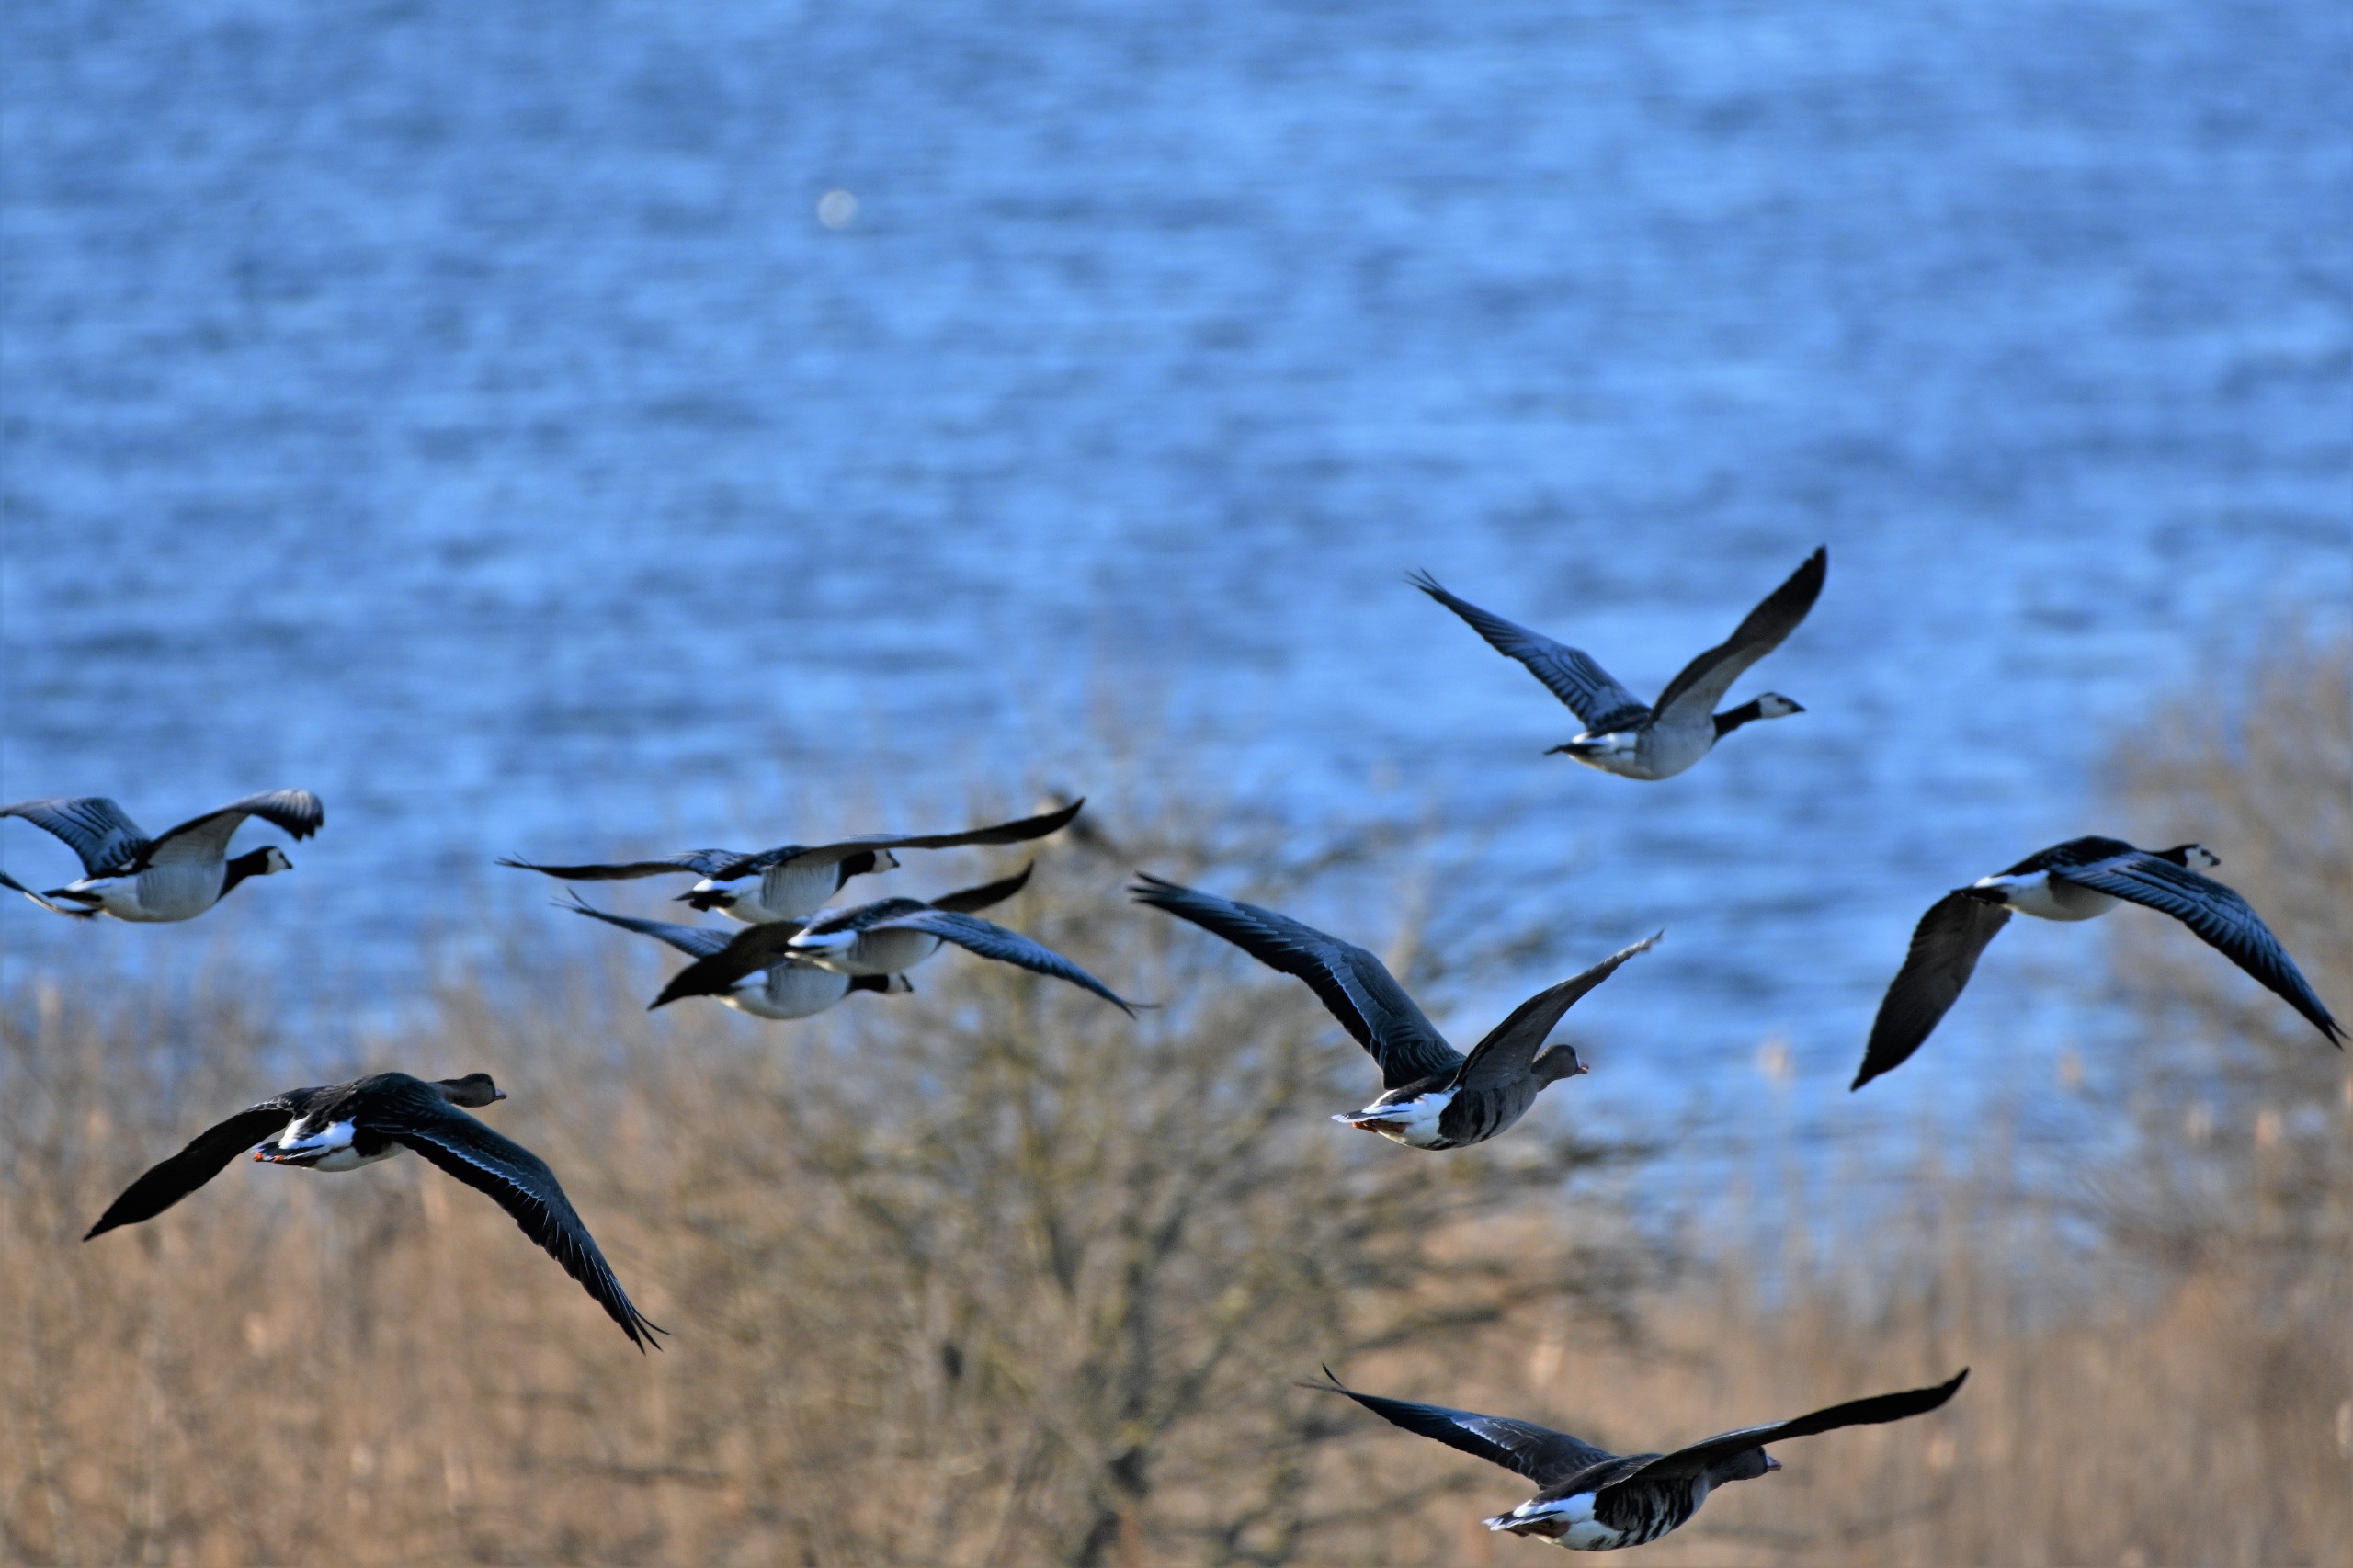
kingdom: Animalia
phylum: Chordata
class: Aves
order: Anseriformes
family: Anatidae
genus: Anser
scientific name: Anser albifrons
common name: Blisgås
